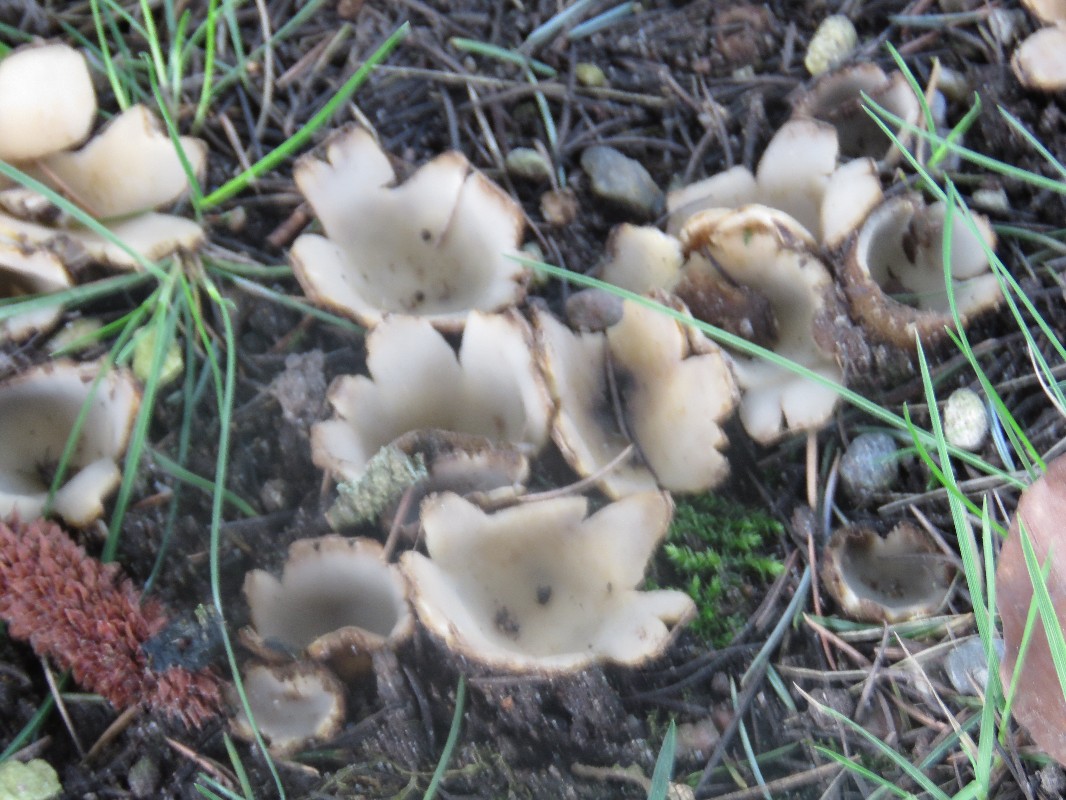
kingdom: Fungi
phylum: Ascomycota
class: Pezizomycetes
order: Pezizales
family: Pyronemataceae
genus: Geopora
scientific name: Geopora sumneriana
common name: vår-jordbæger
